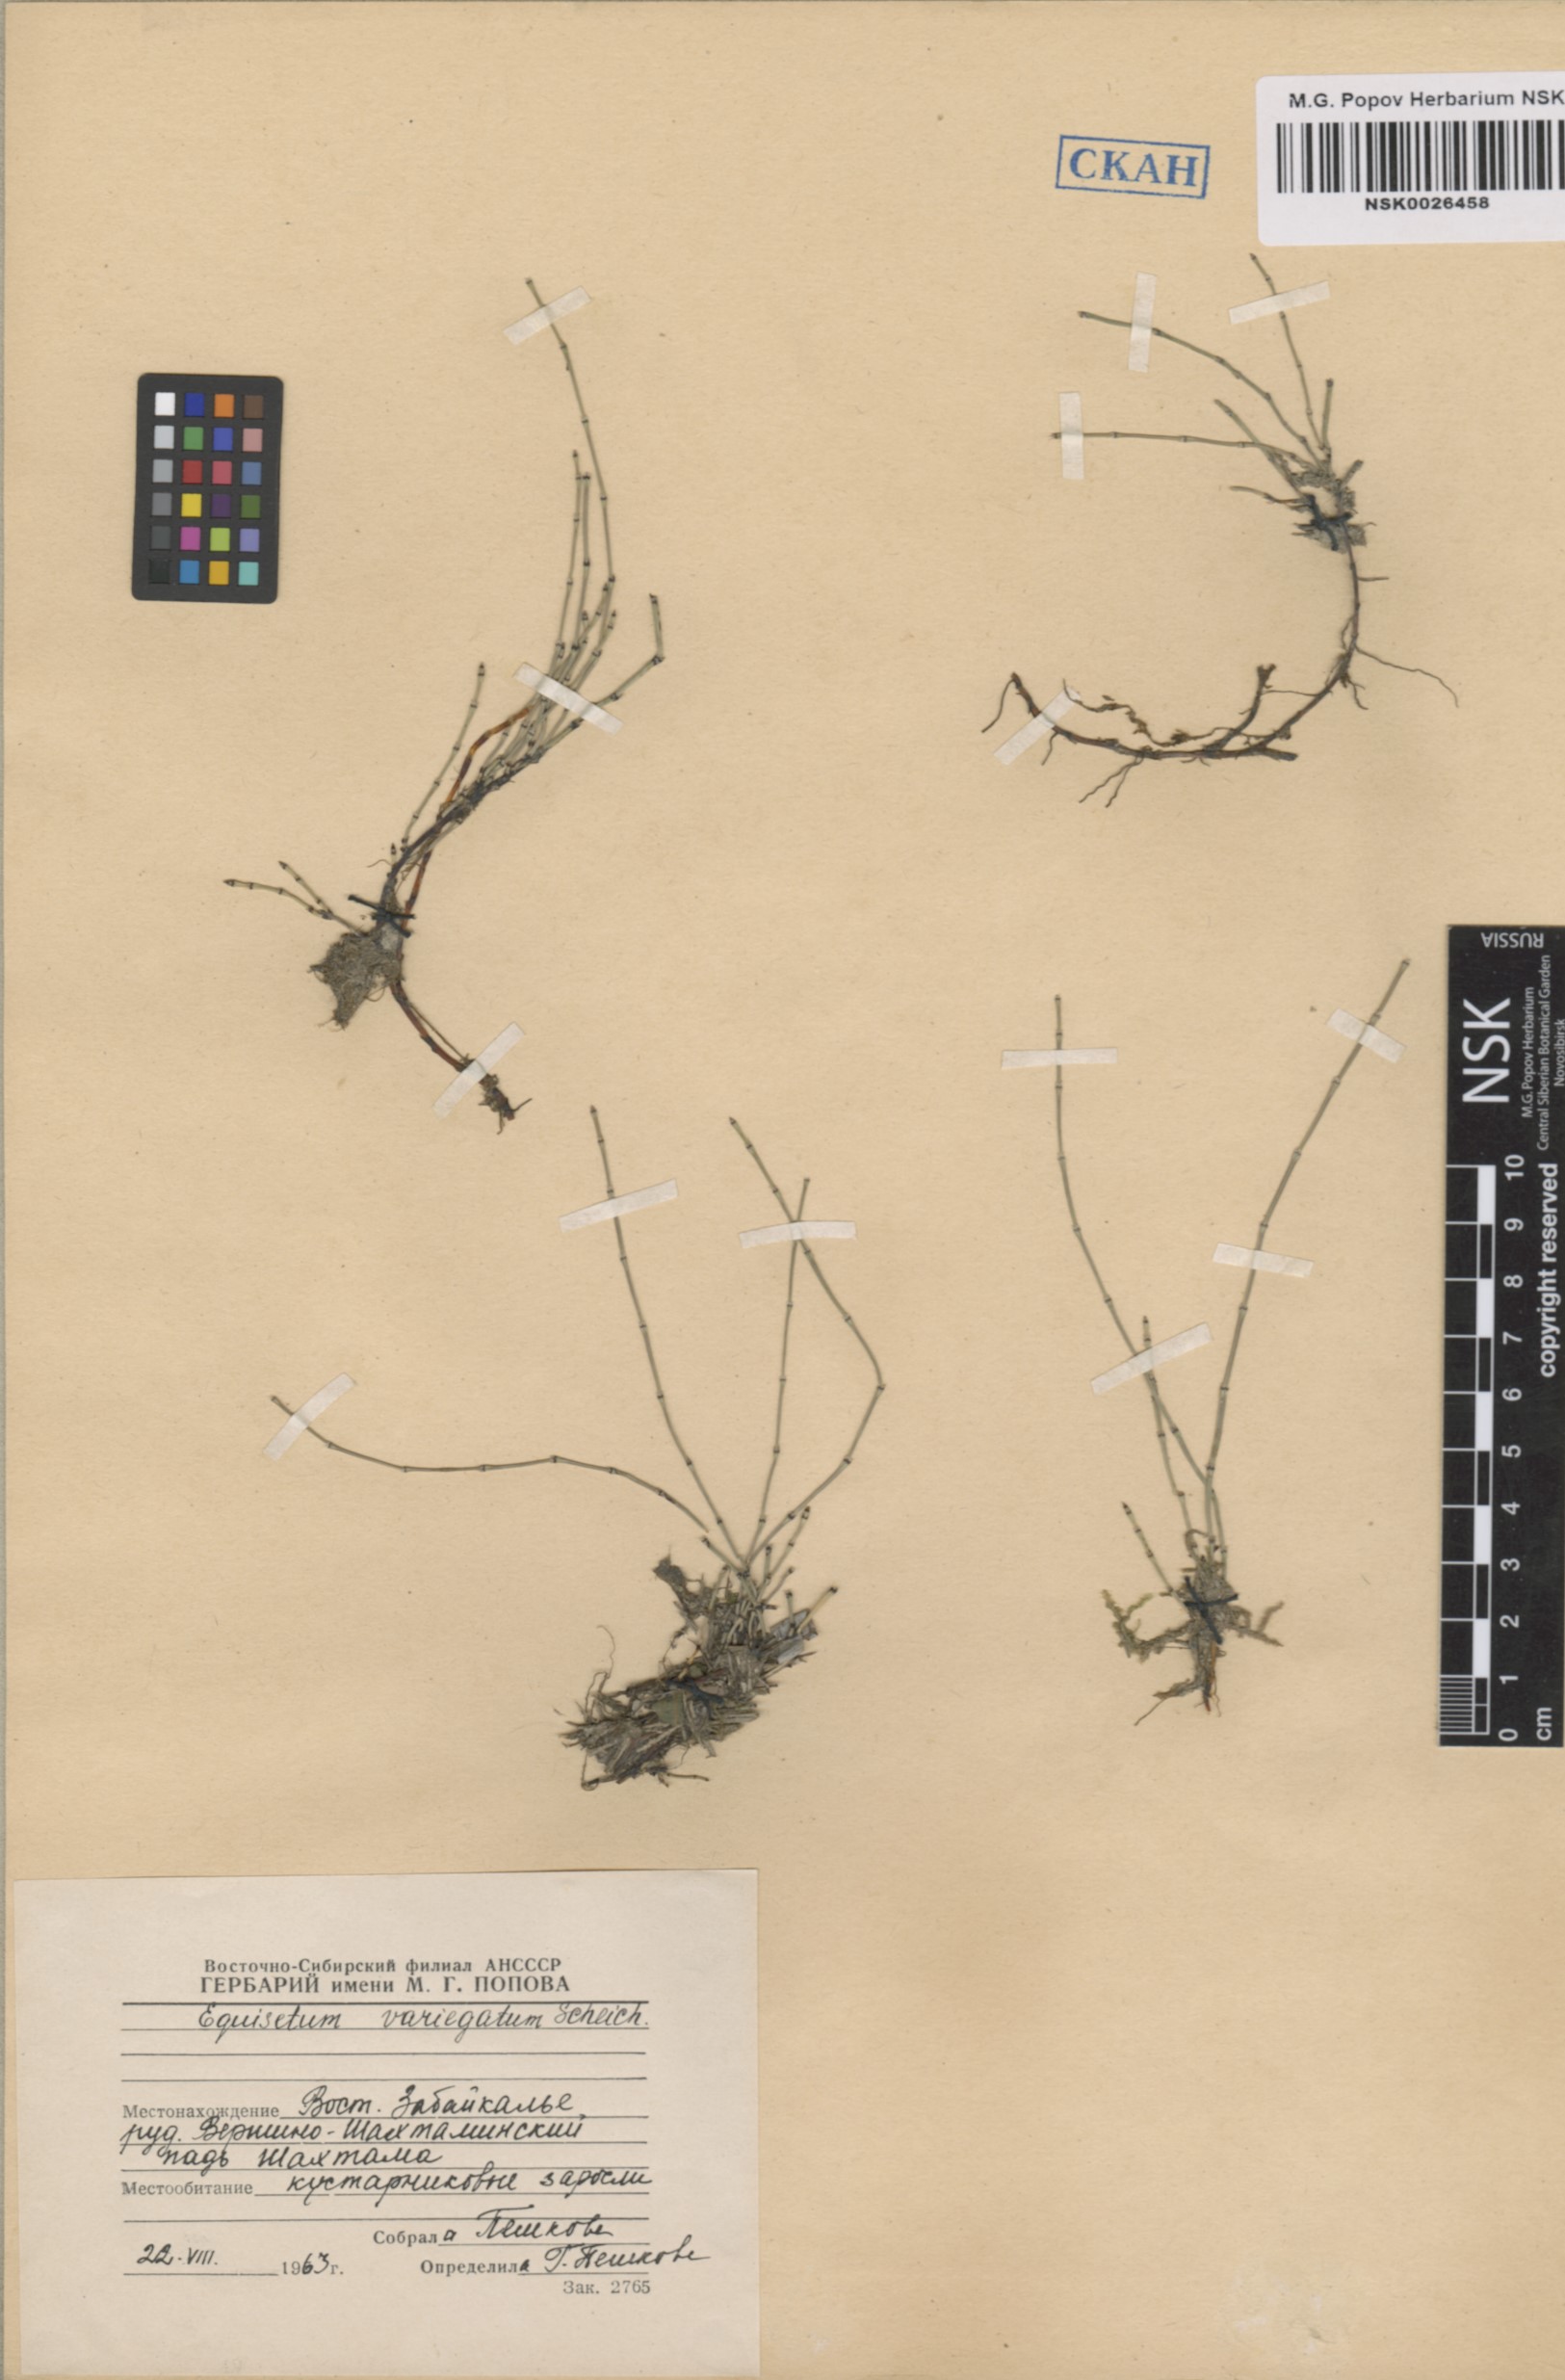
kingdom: Plantae
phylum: Tracheophyta
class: Polypodiopsida
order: Equisetales
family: Equisetaceae
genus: Equisetum
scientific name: Equisetum variegatum
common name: Variegated horsetail
